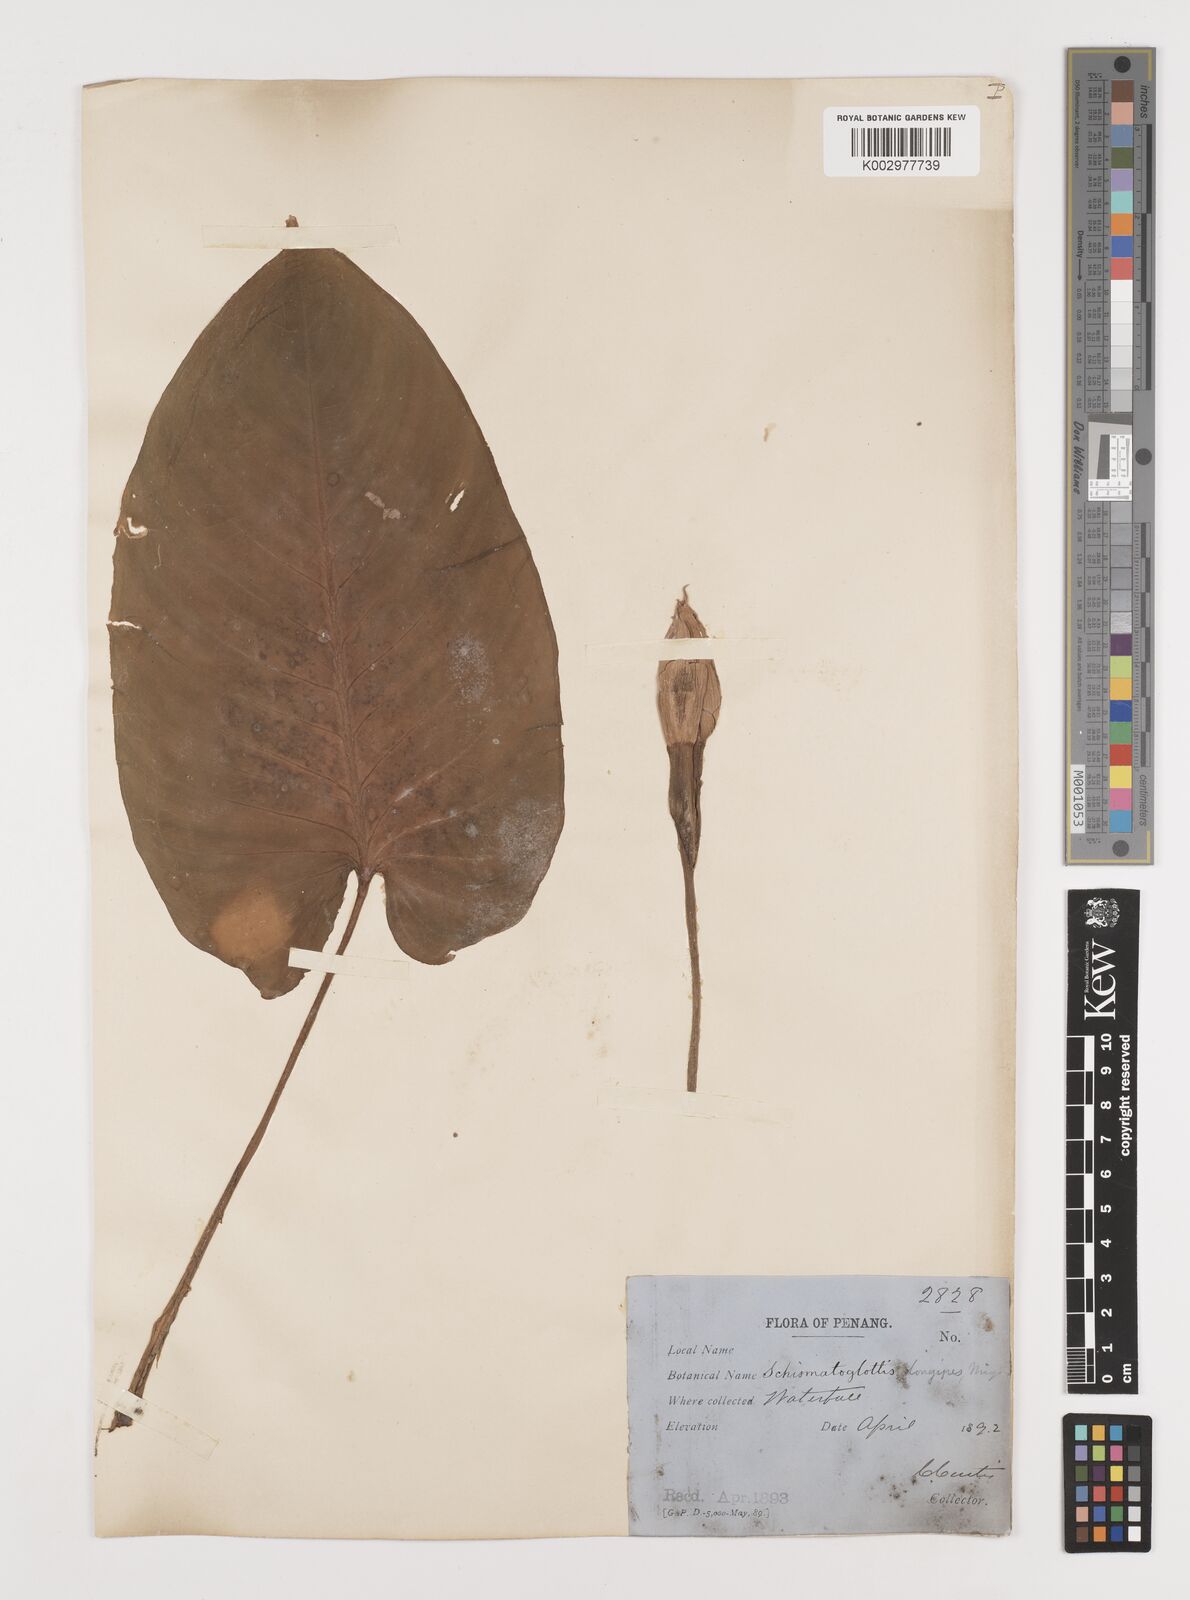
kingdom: Plantae
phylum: Tracheophyta
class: Liliopsida
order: Alismatales
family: Araceae
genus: Schismatoglottis
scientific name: Schismatoglottis calyptrata
